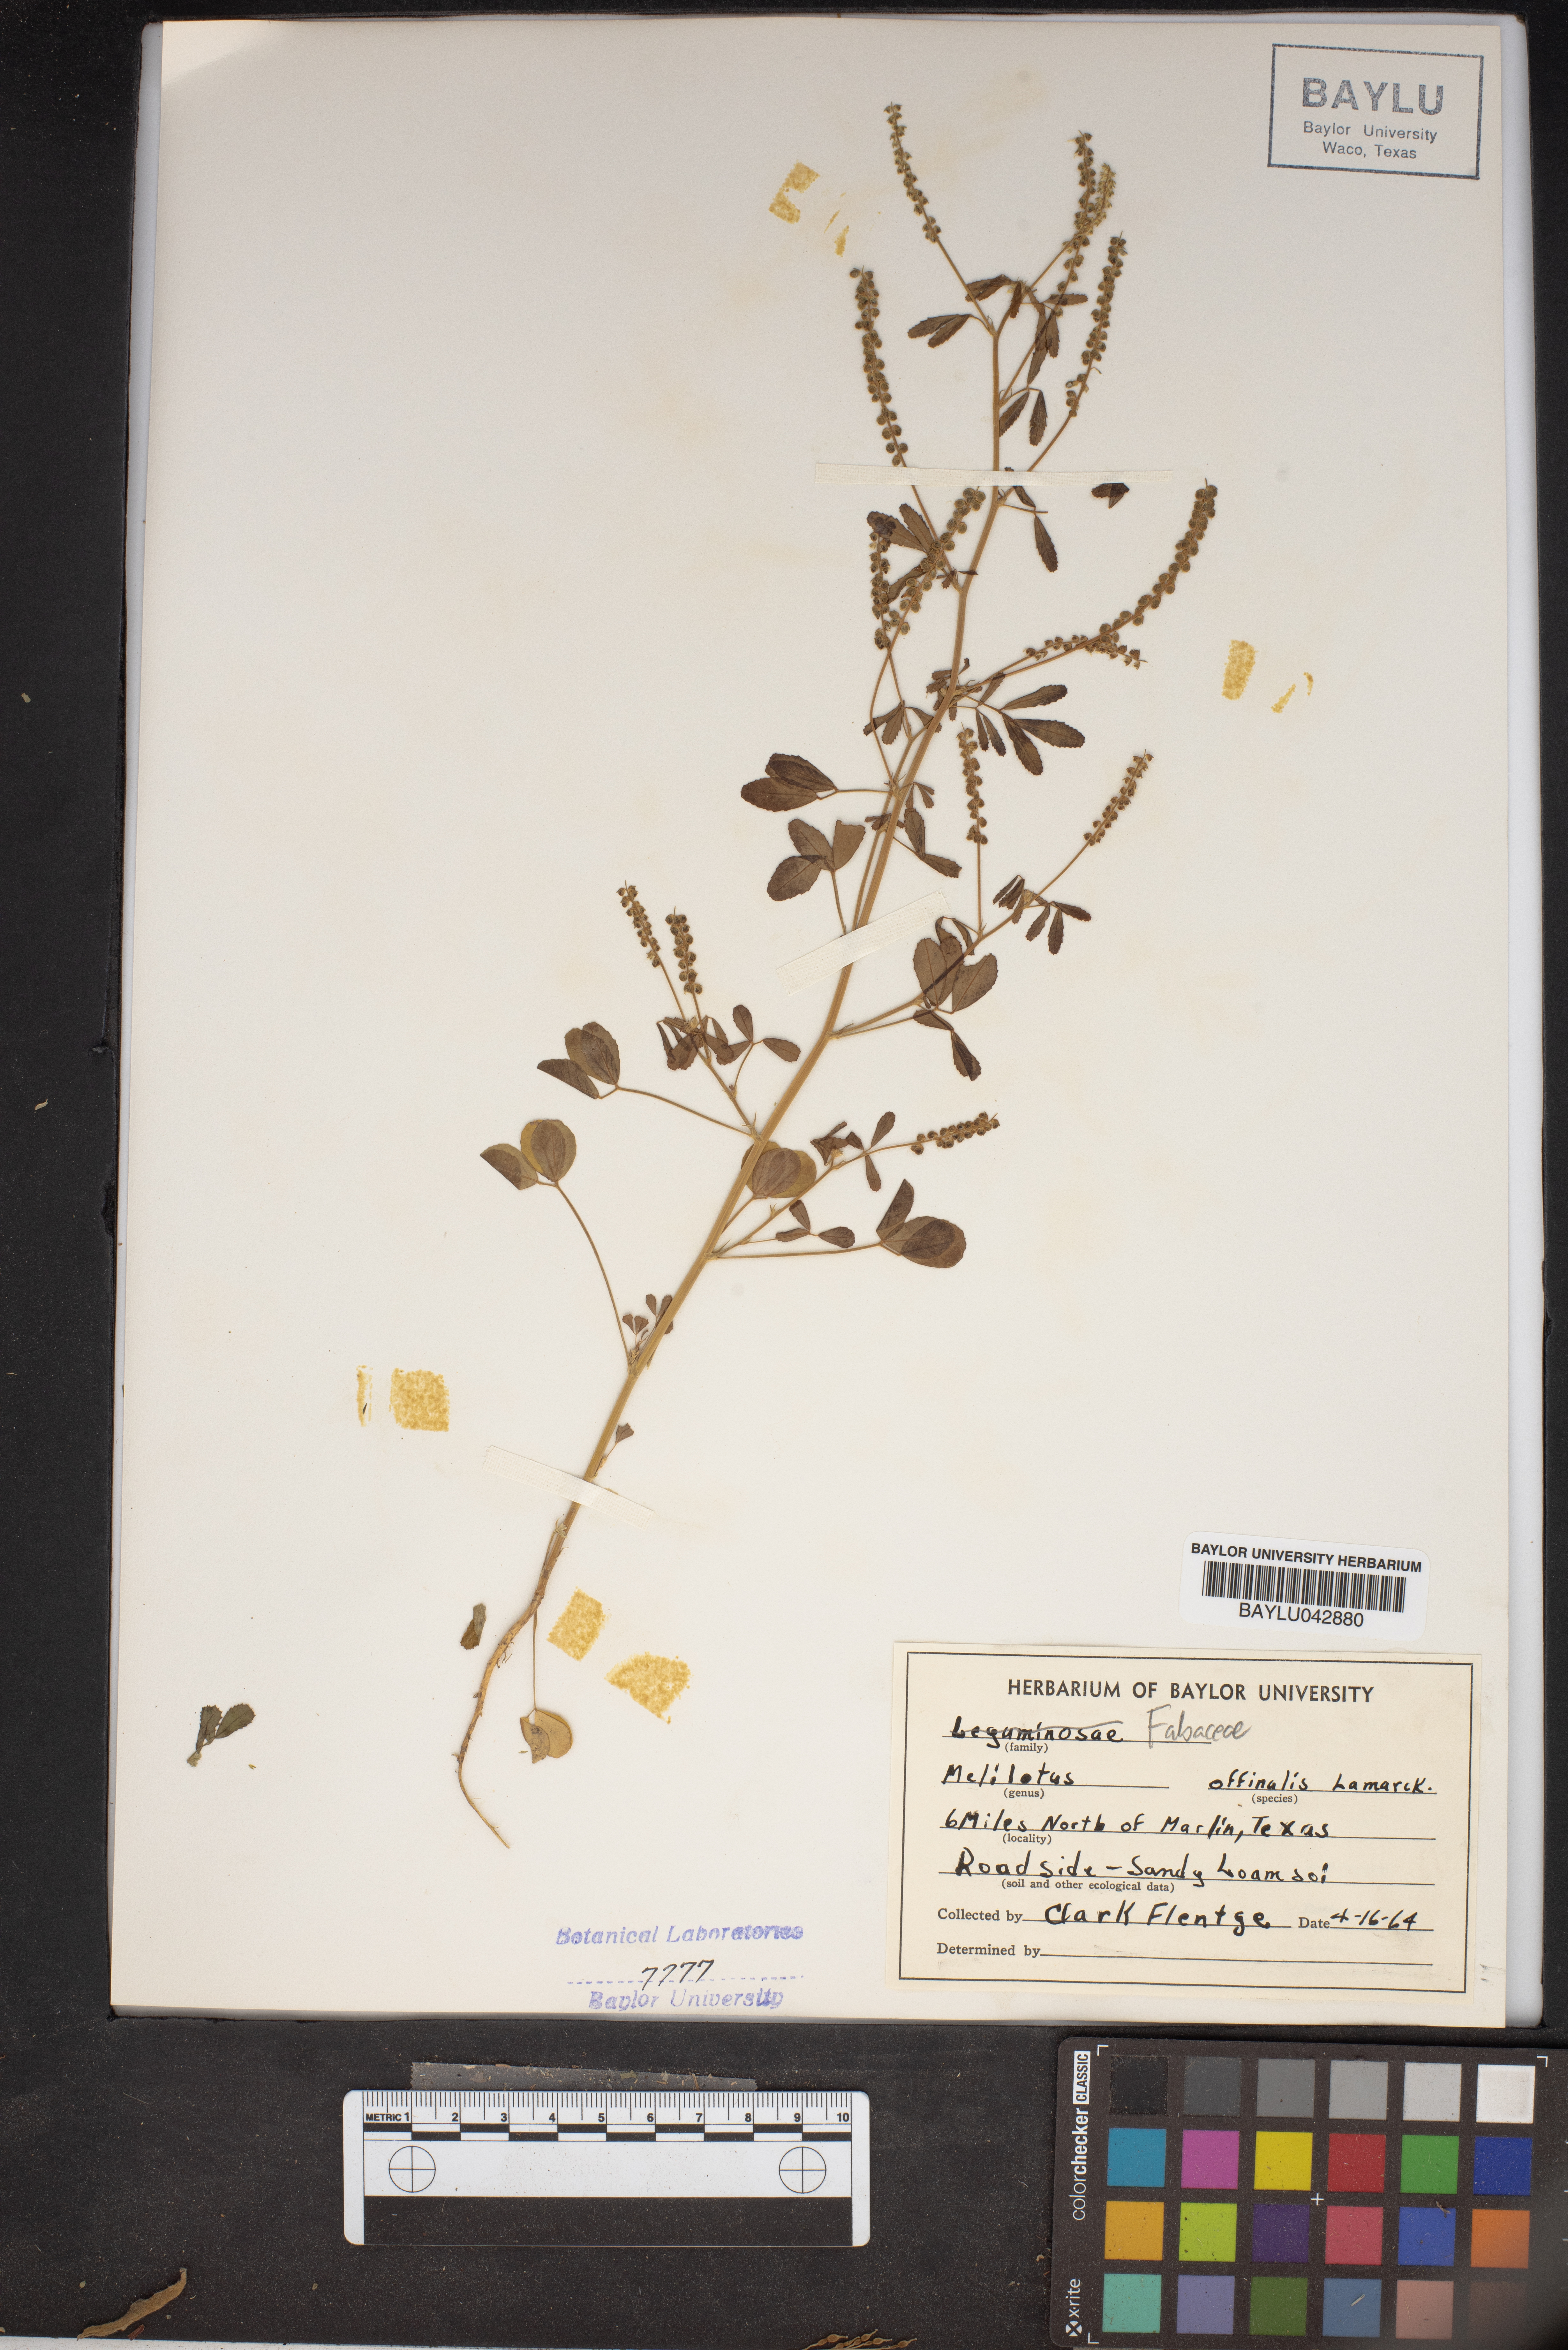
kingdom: Plantae
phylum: Tracheophyta
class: Magnoliopsida
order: Fabales
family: Fabaceae
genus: Melilotus
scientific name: Melilotus officinalis
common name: Sweetclover
